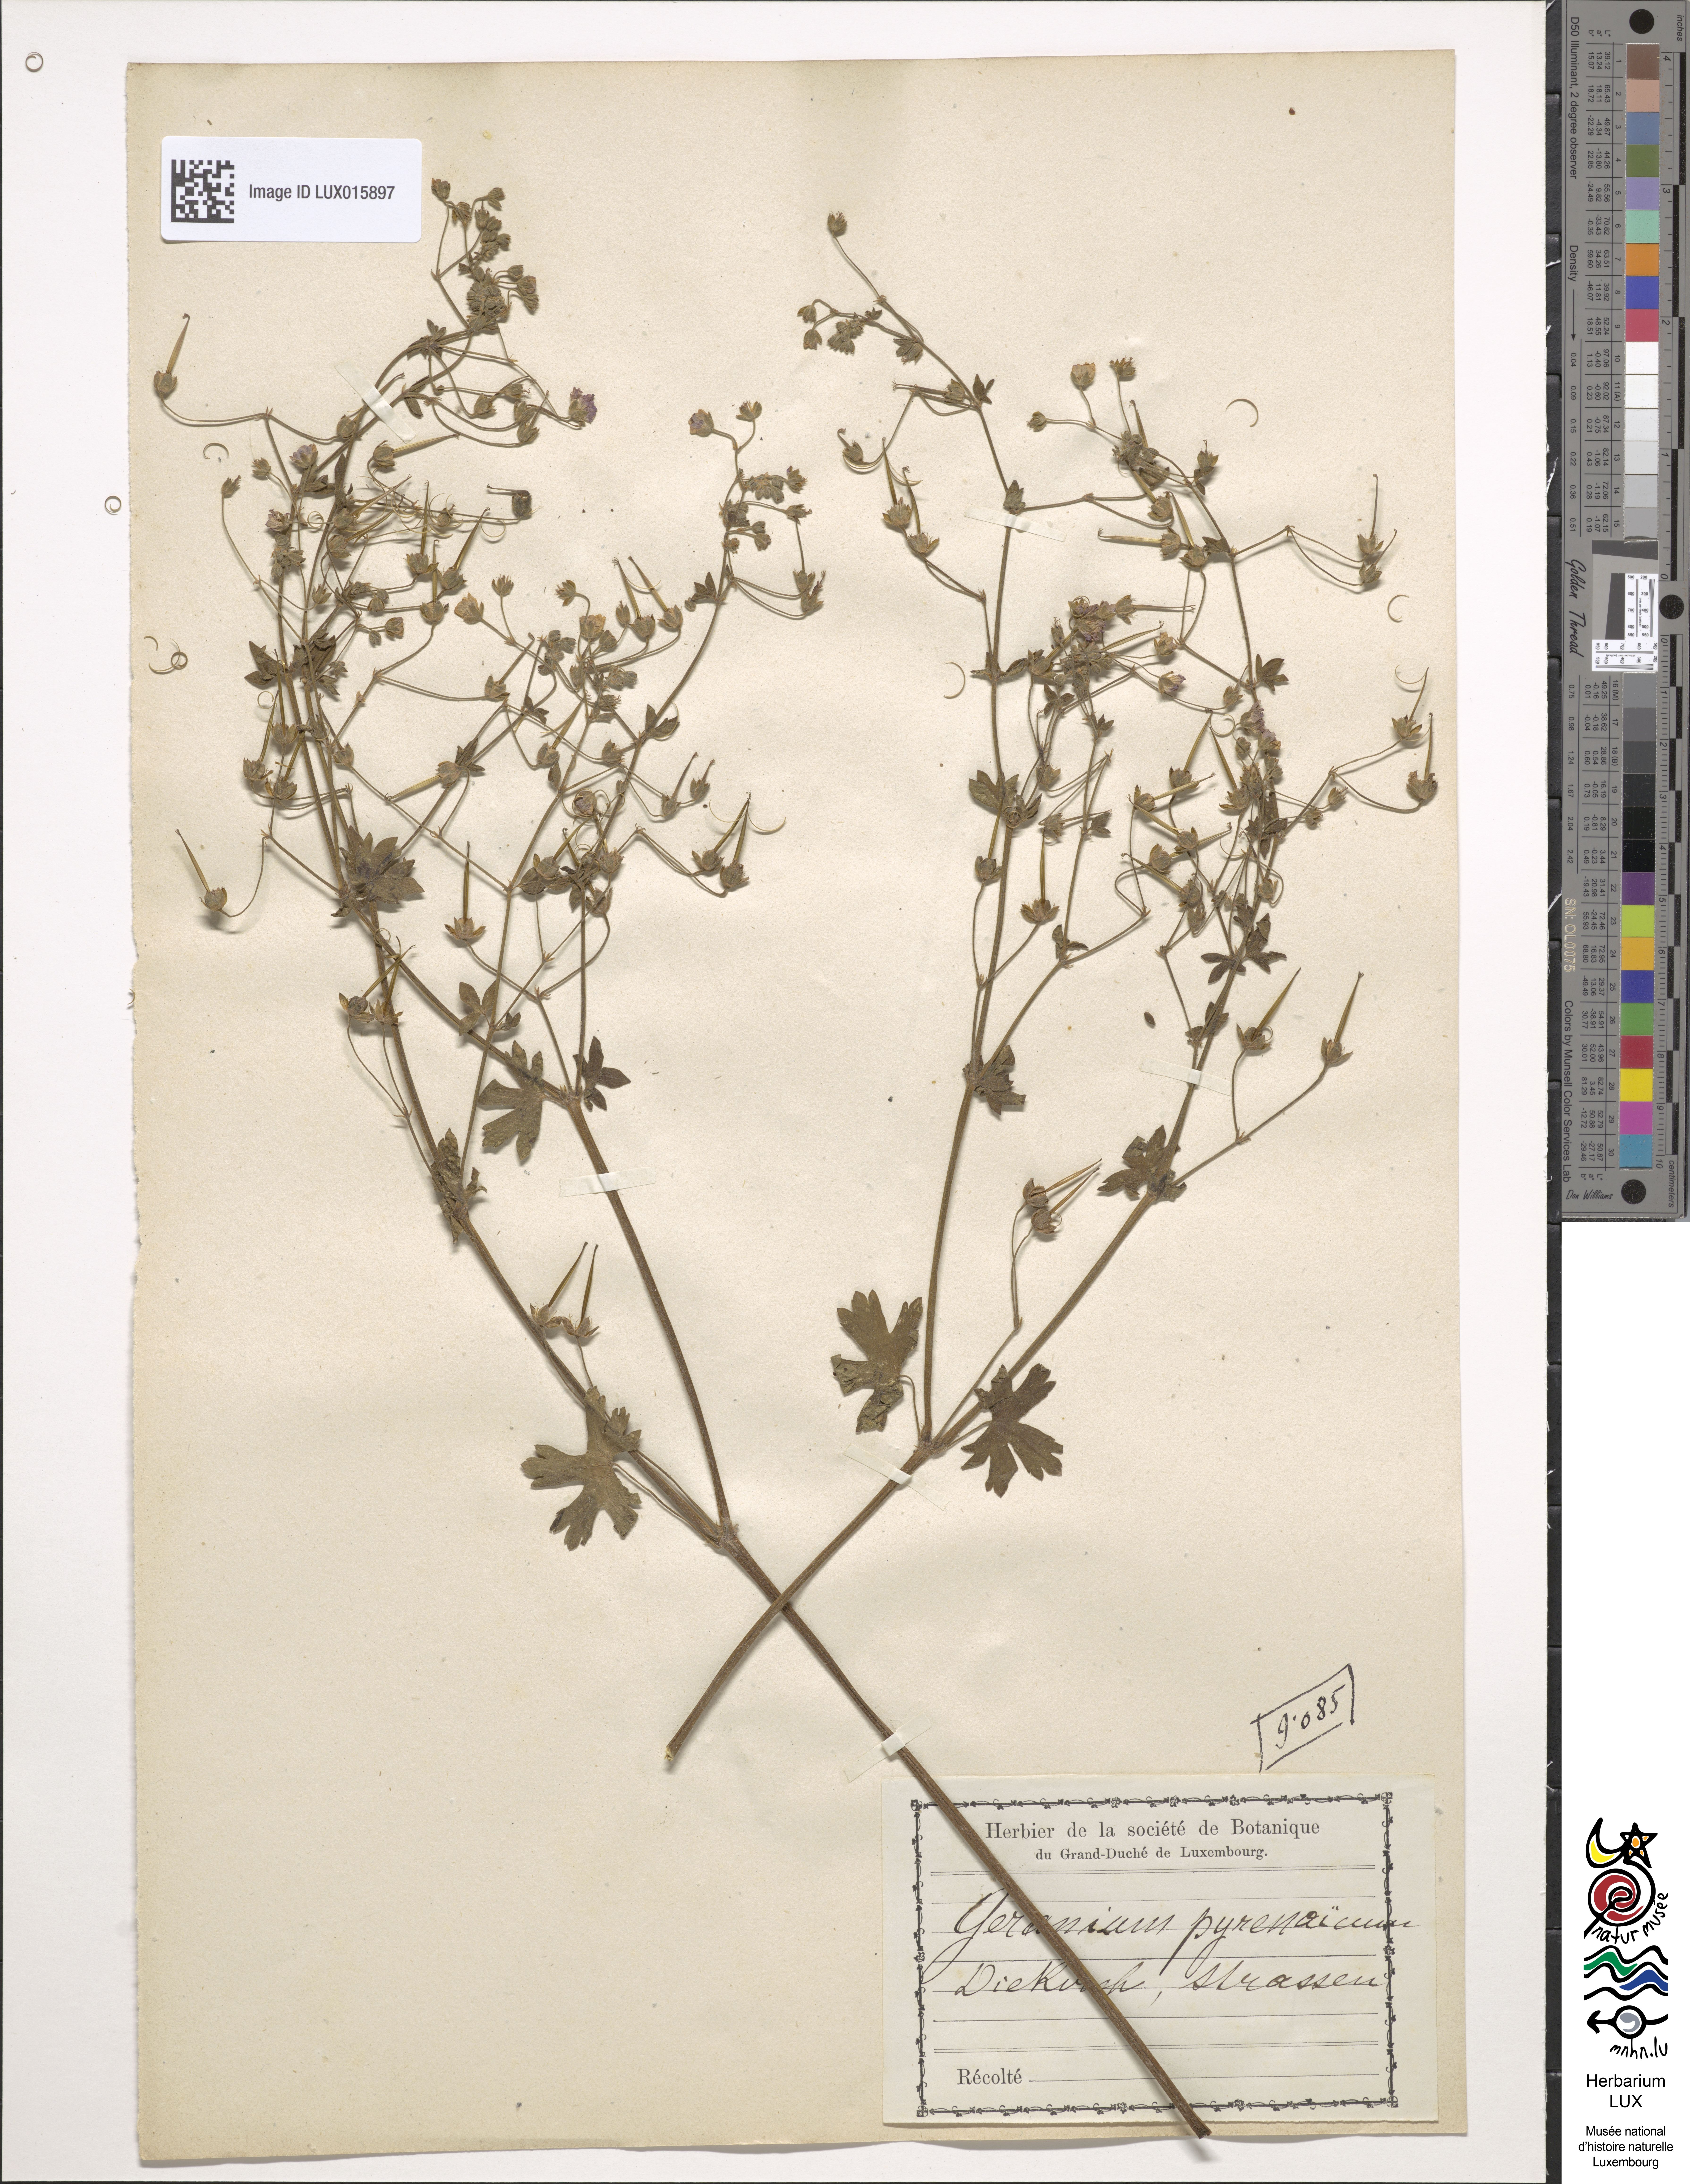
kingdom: Plantae
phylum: Tracheophyta
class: Magnoliopsida
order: Geraniales
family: Geraniaceae
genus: Geranium
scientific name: Geranium pyrenaicum
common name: Hedgerow crane's-bill
